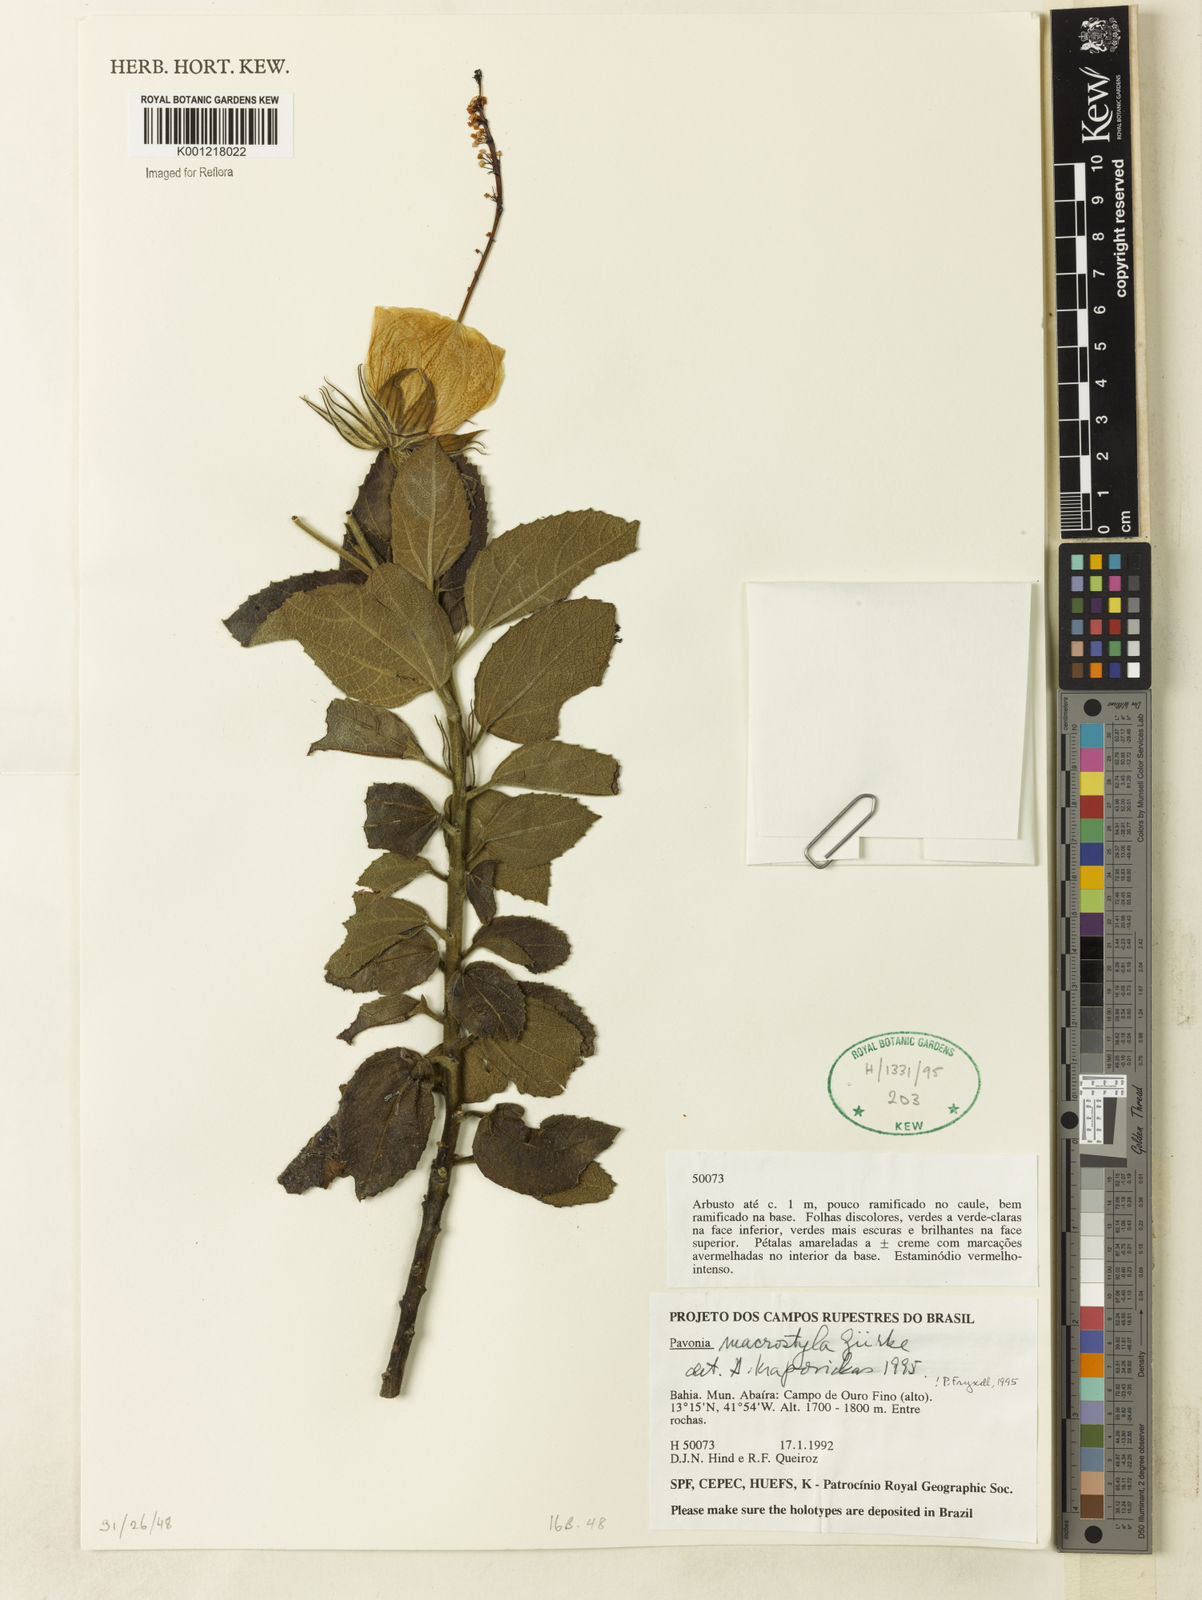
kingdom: Plantae
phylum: Tracheophyta
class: Magnoliopsida
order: Malvales
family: Malvaceae
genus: Pavonia
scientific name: Pavonia
